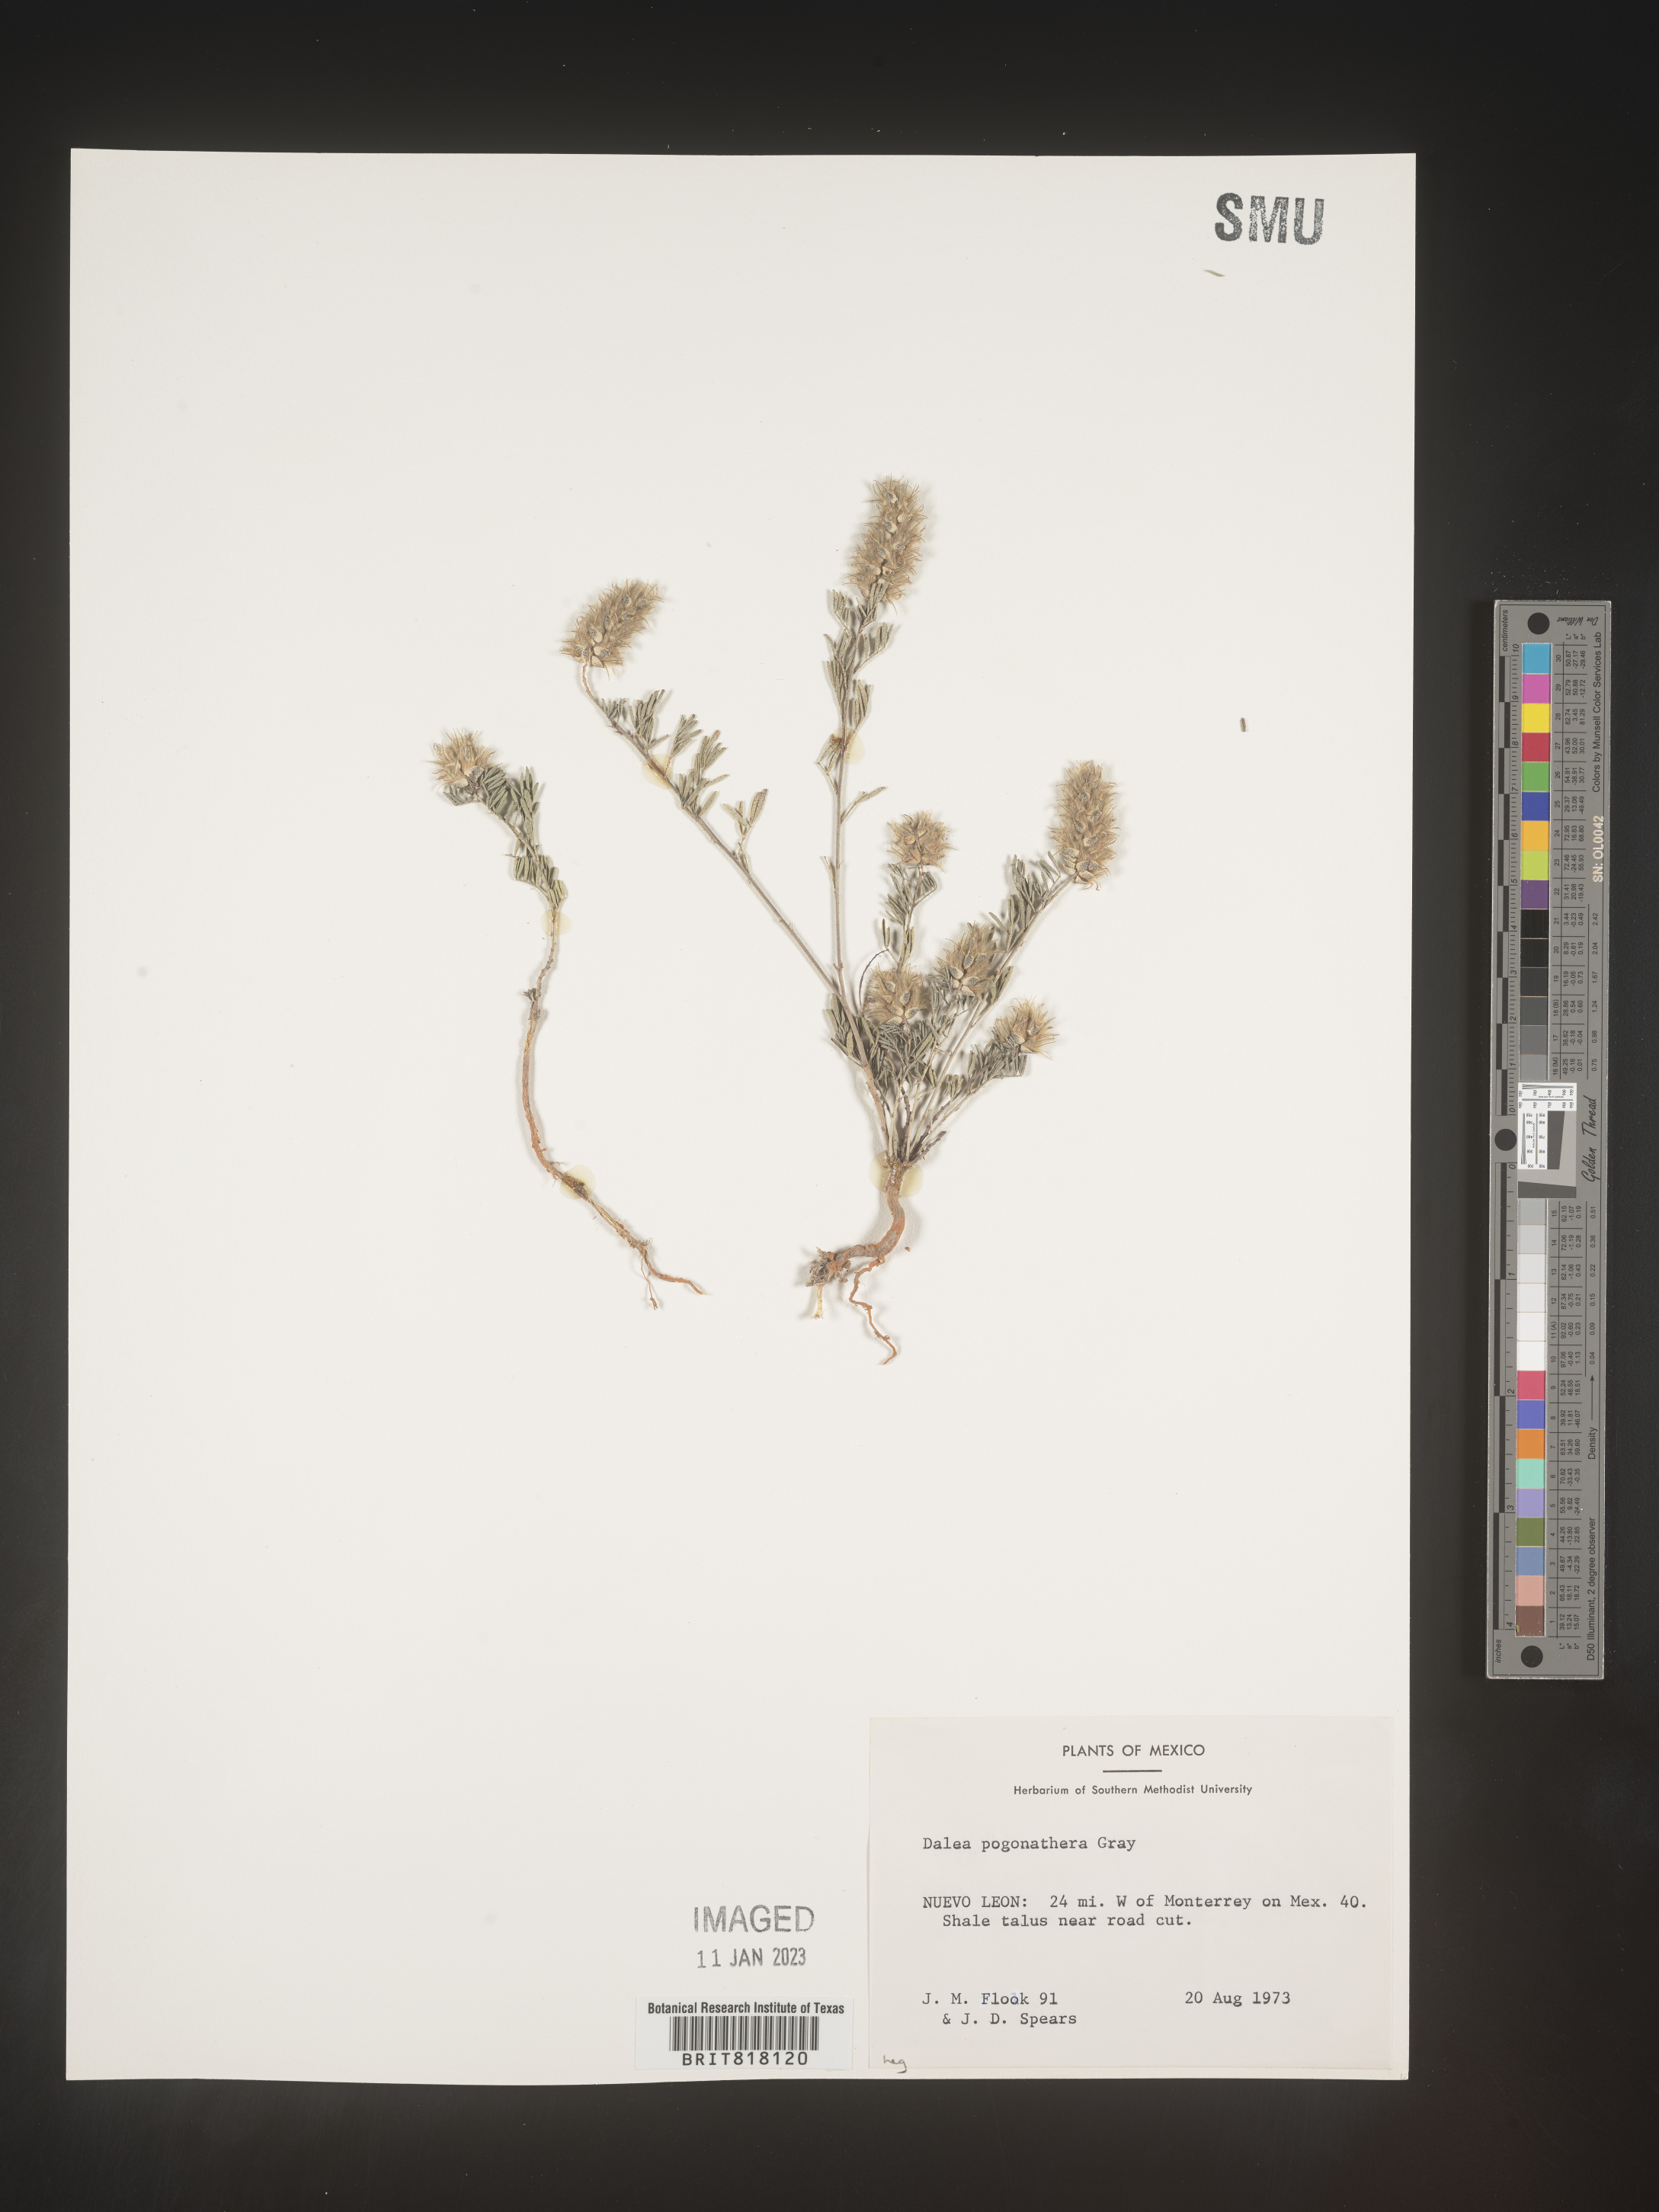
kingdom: Plantae
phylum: Tracheophyta
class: Magnoliopsida
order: Fabales
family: Fabaceae
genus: Dalea
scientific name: Dalea
